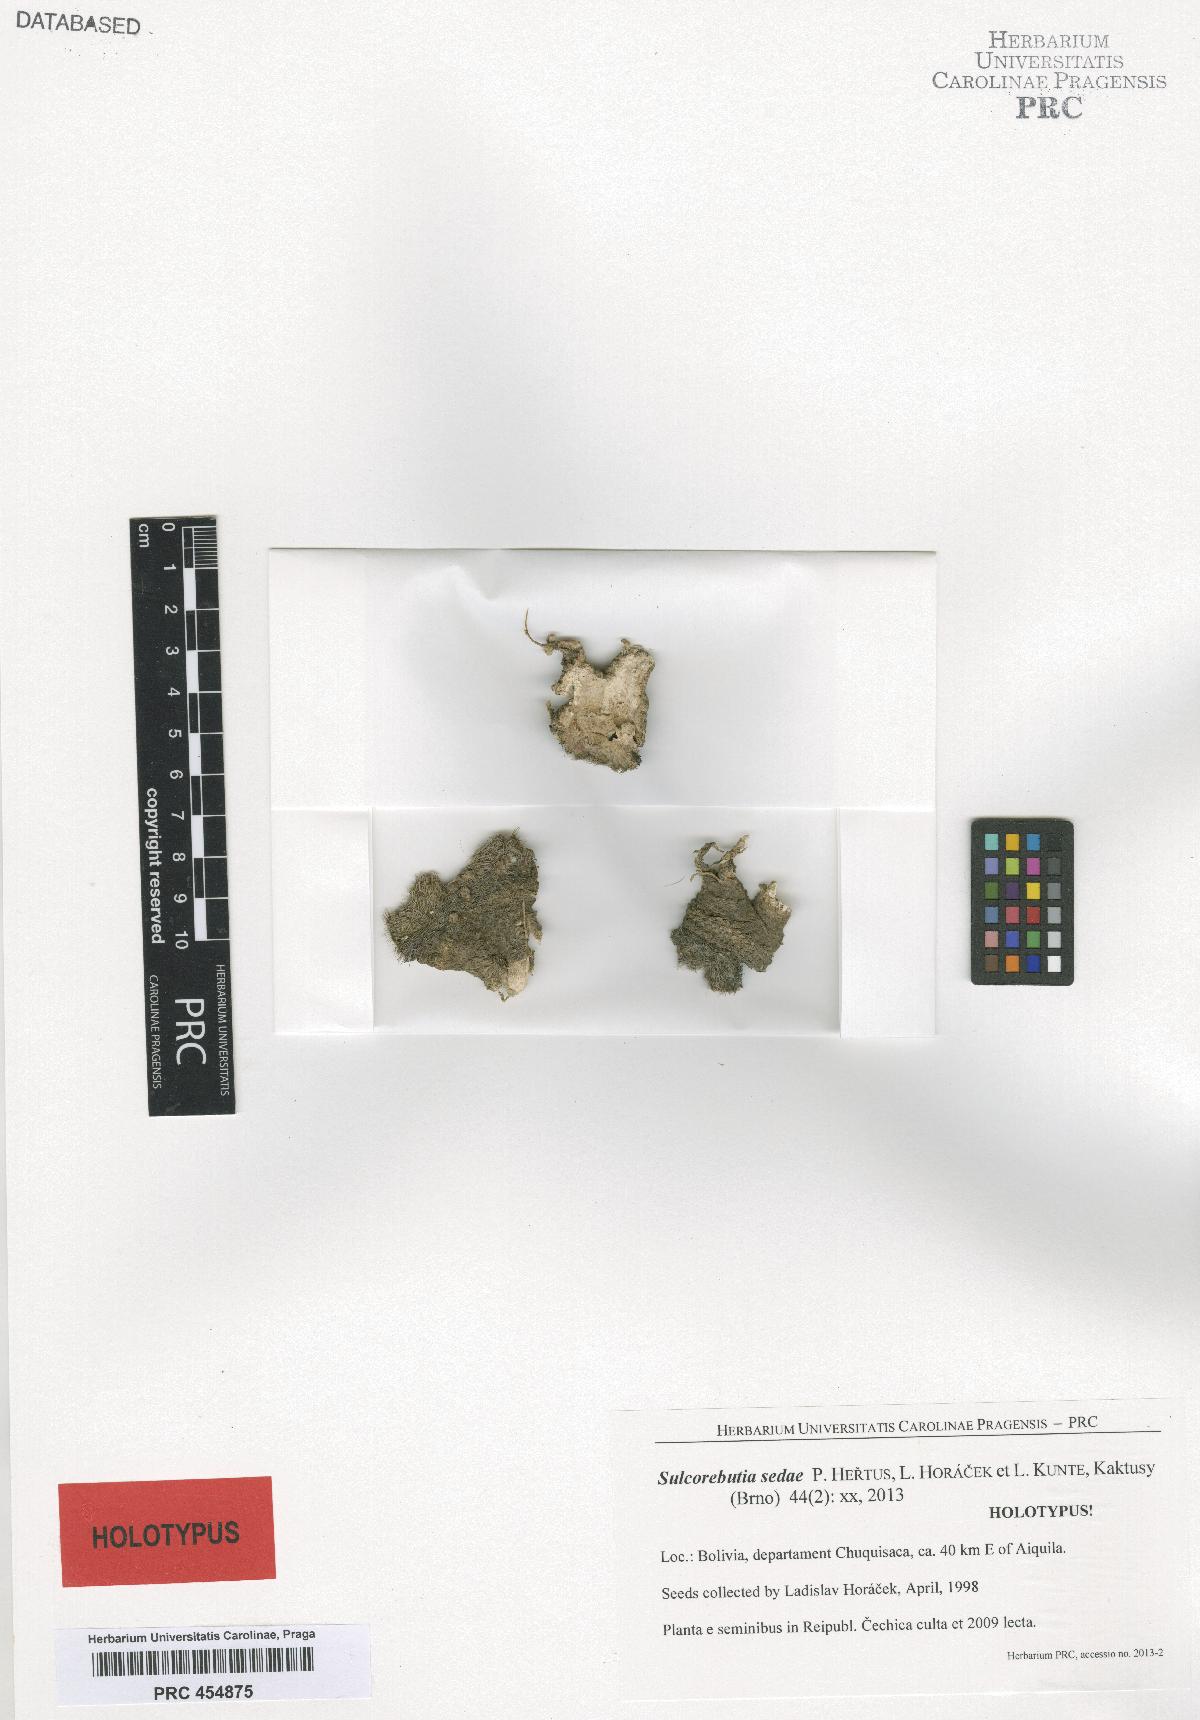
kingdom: Plantae
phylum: Tracheophyta
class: Magnoliopsida
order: Caryophyllales
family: Cactaceae
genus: Weingartia
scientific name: Weingartia mentosa
